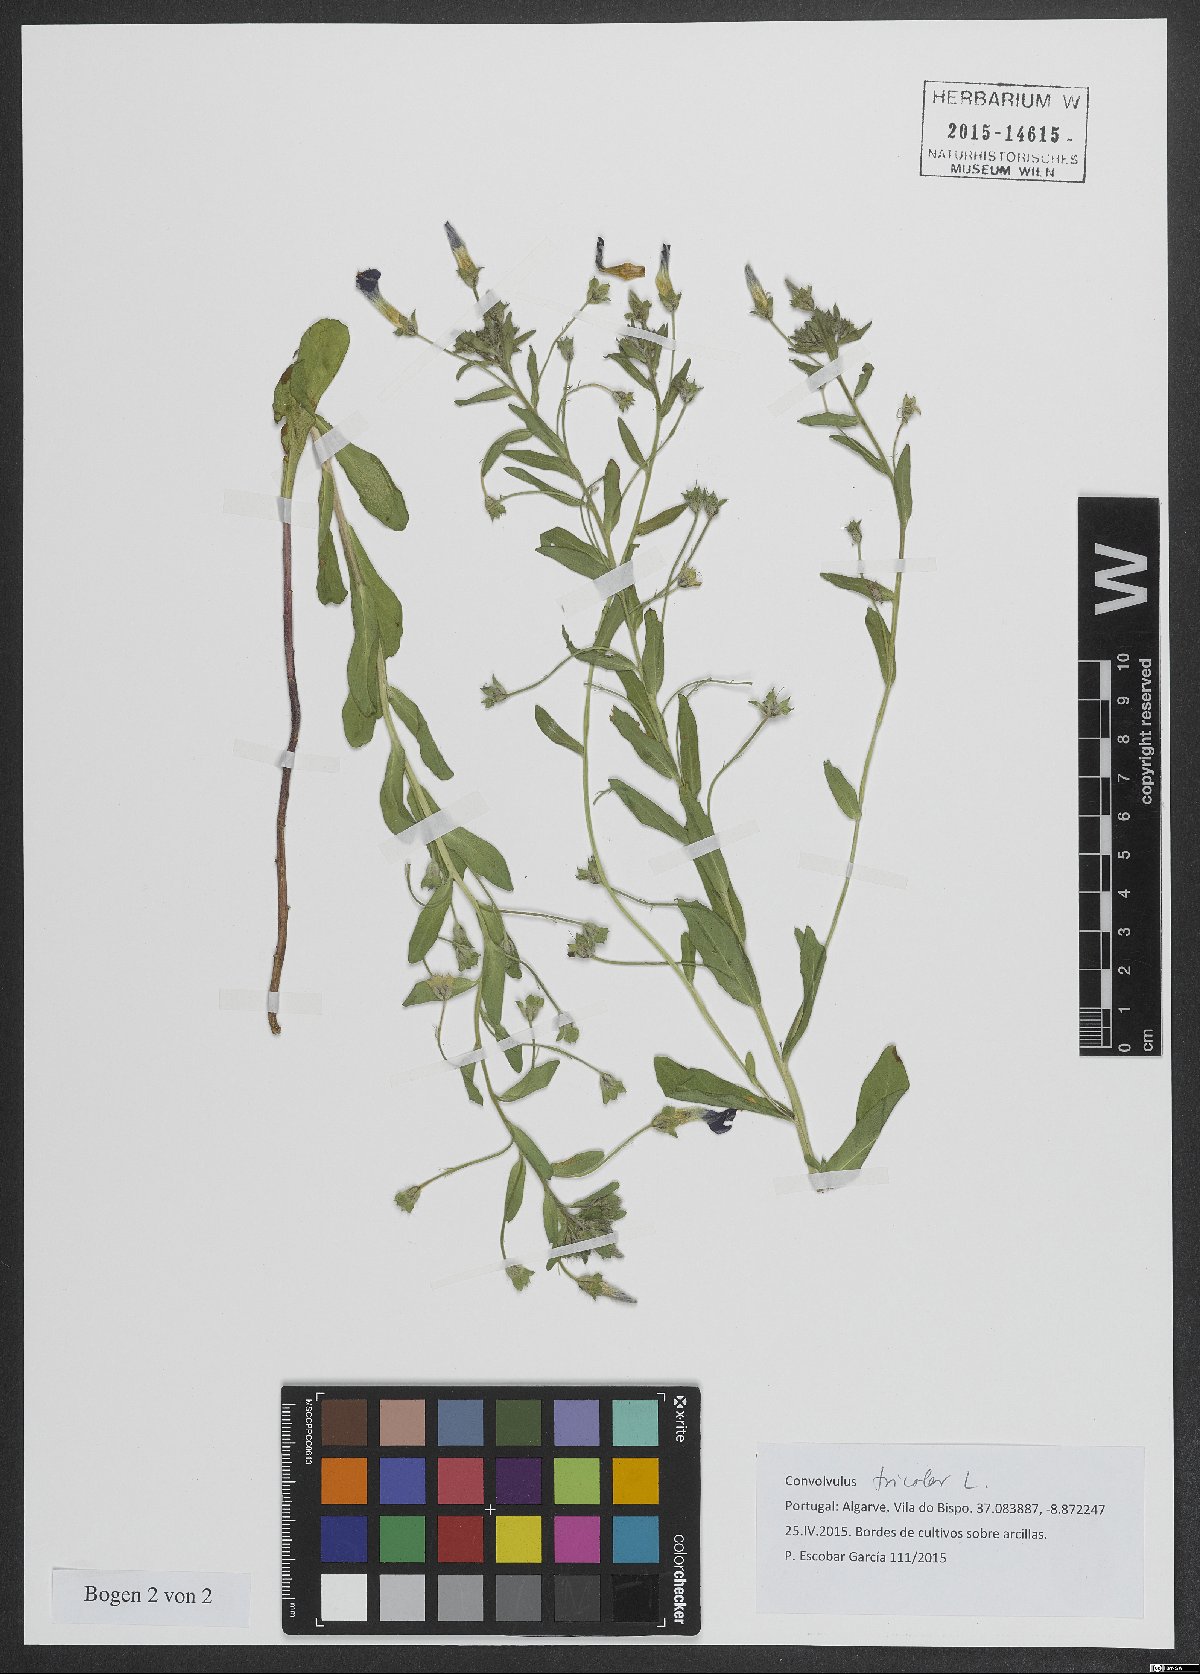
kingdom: Plantae
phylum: Tracheophyta
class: Magnoliopsida
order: Solanales
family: Convolvulaceae
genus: Convolvulus
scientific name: Convolvulus tricolor
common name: Dwarf morning-glory
